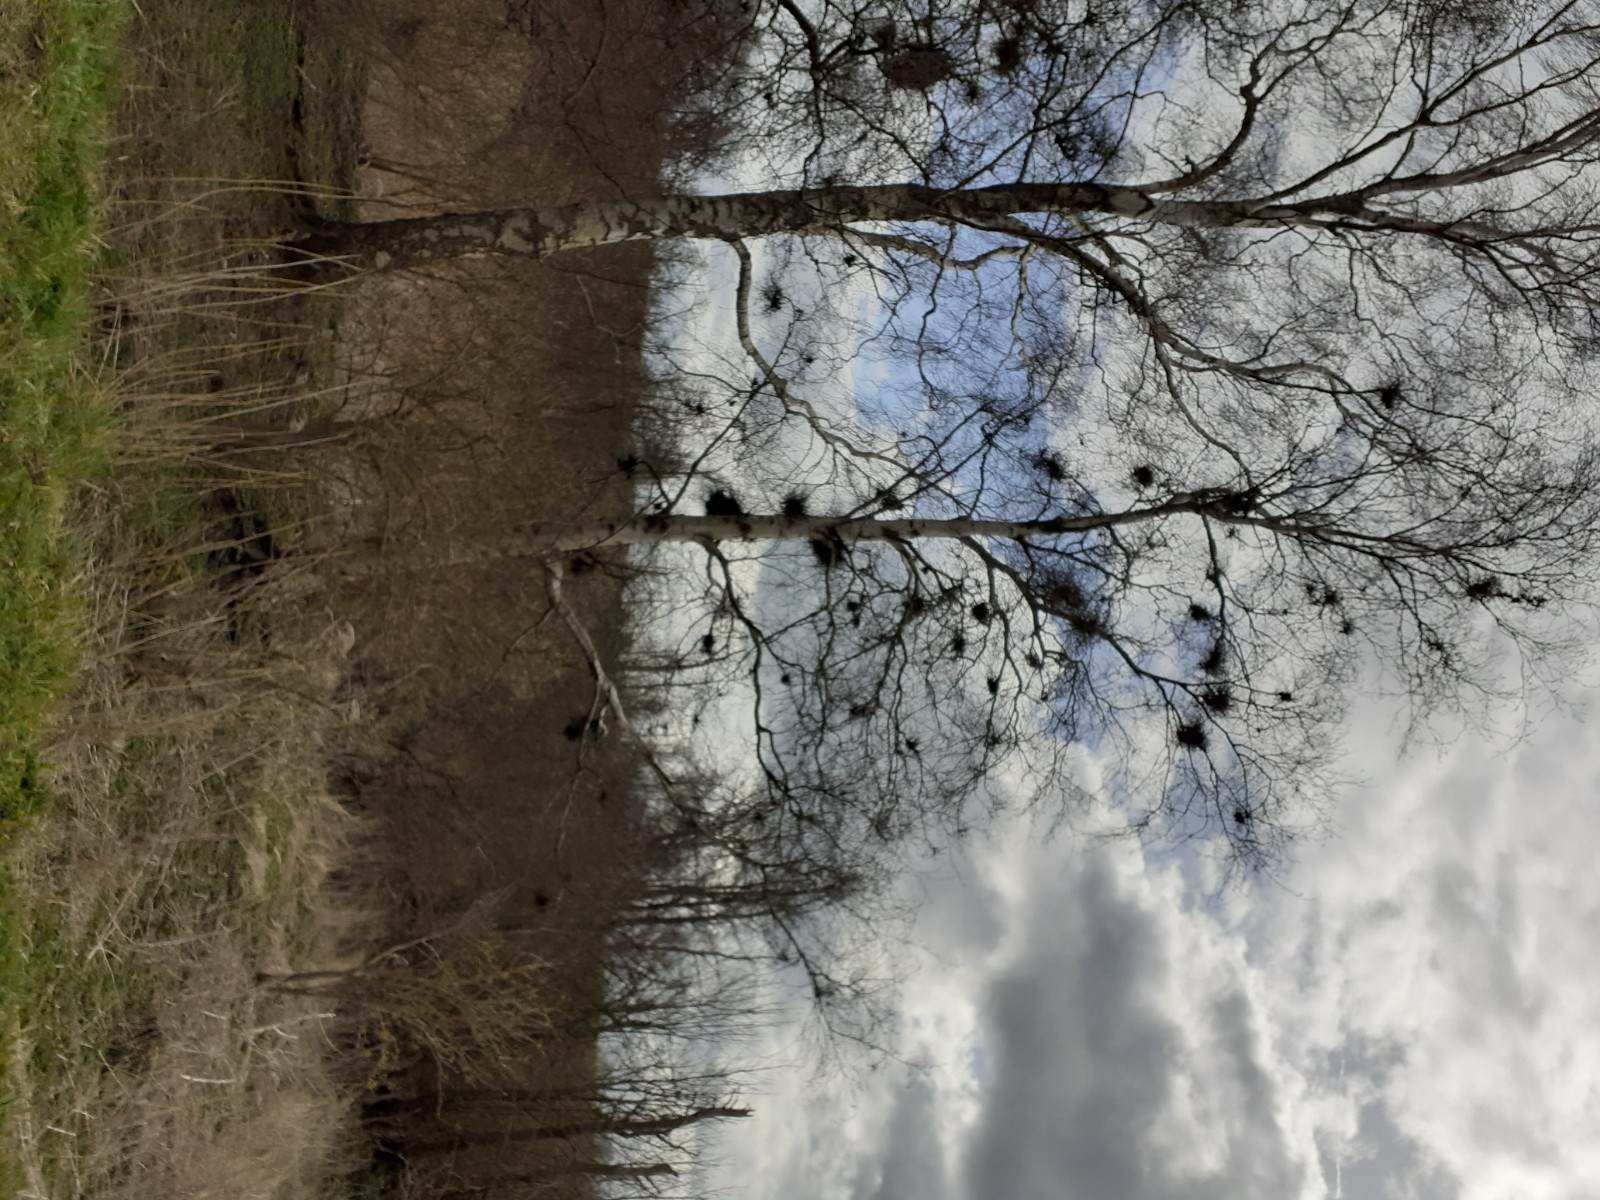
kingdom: Fungi
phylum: Ascomycota
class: Taphrinomycetes
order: Taphrinales
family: Taphrinaceae
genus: Taphrina
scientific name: Taphrina betulina
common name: hekse-sækdug
